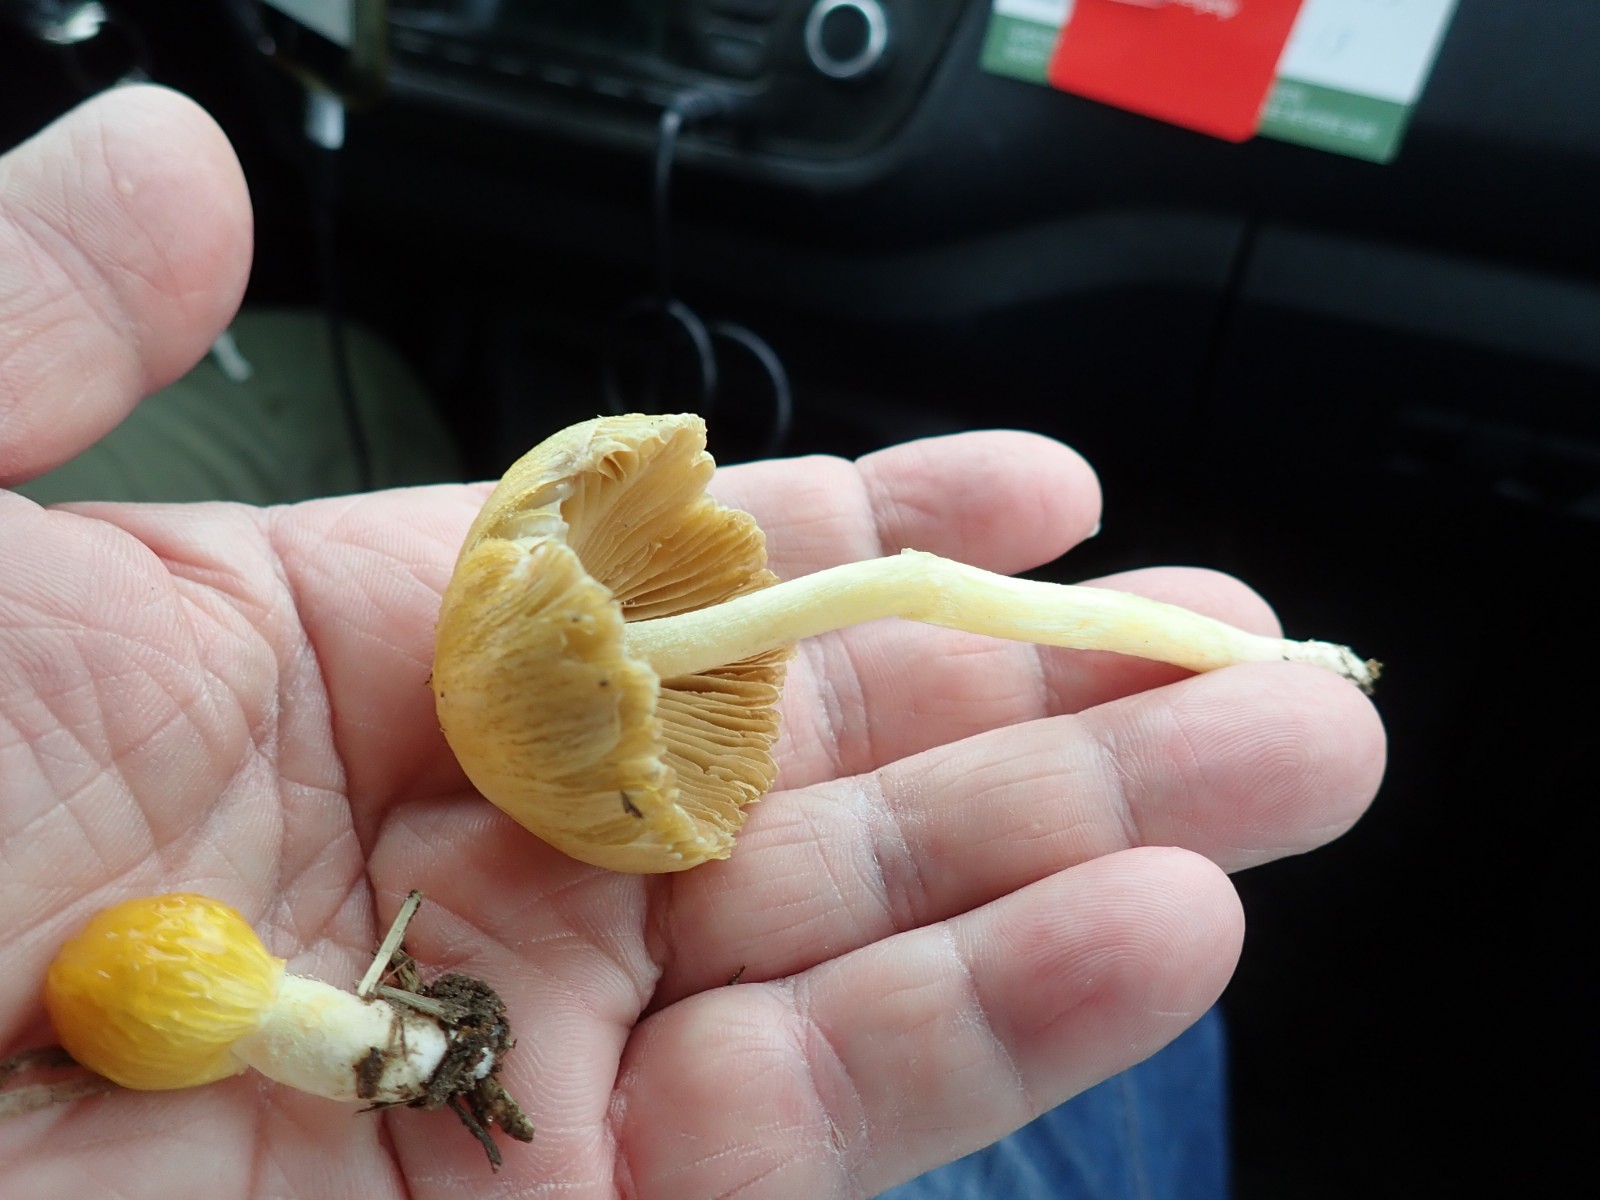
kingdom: Fungi
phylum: Basidiomycota
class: Agaricomycetes
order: Agaricales
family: Bolbitiaceae
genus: Bolbitius
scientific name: Bolbitius titubans
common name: almindelig gulhat
